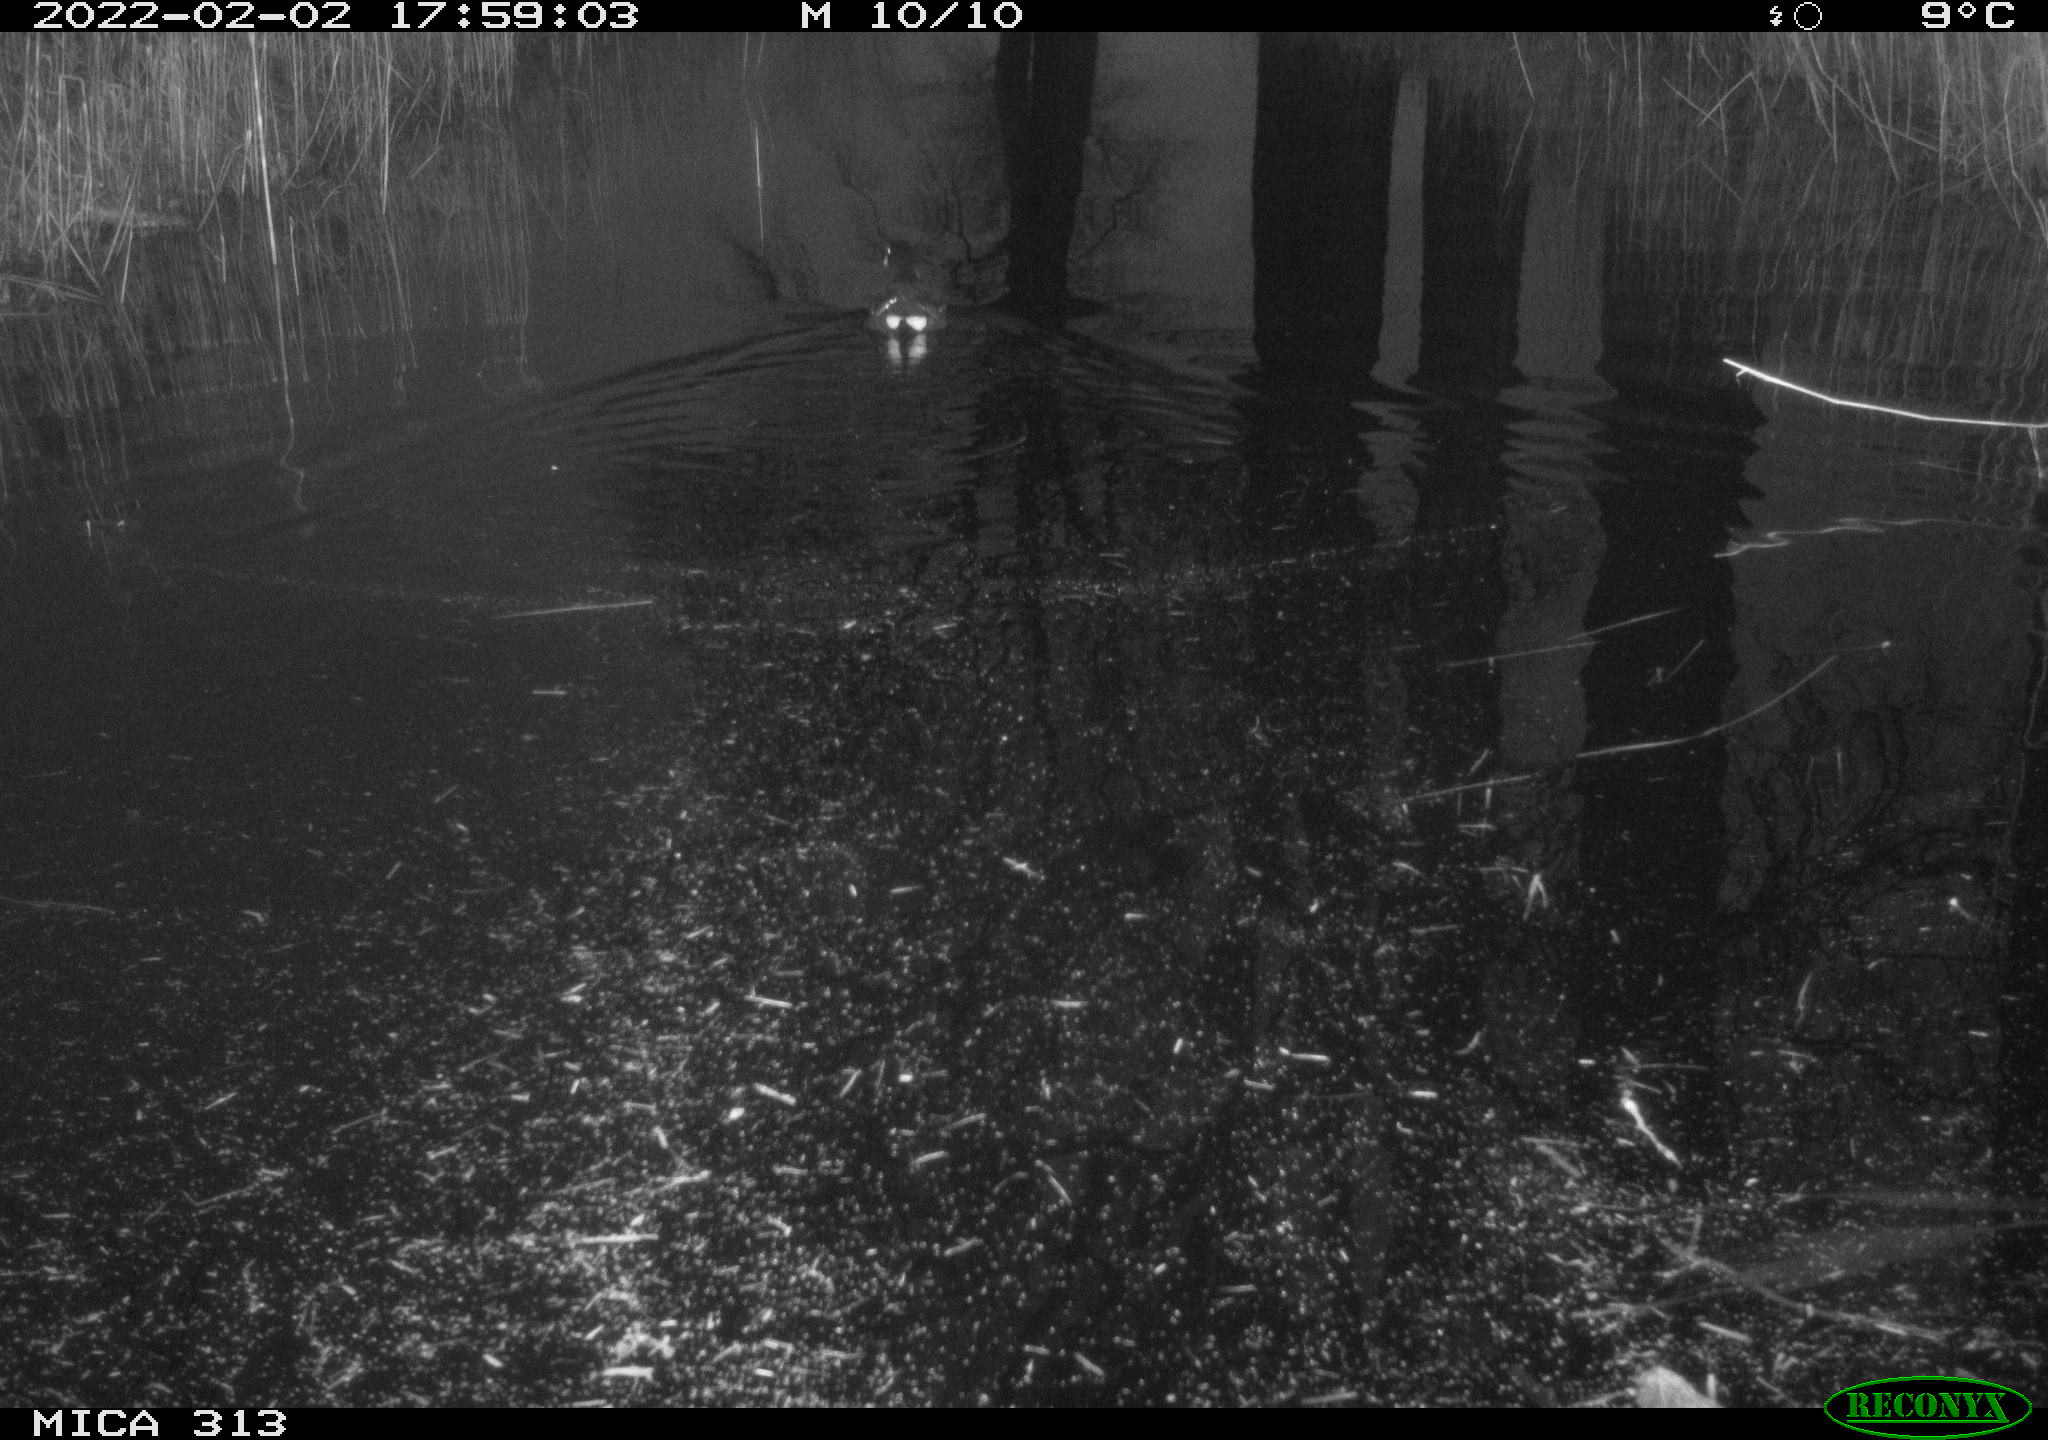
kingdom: Animalia
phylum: Chordata
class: Aves
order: Gruiformes
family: Rallidae
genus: Gallinula
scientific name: Gallinula chloropus
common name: Common moorhen
